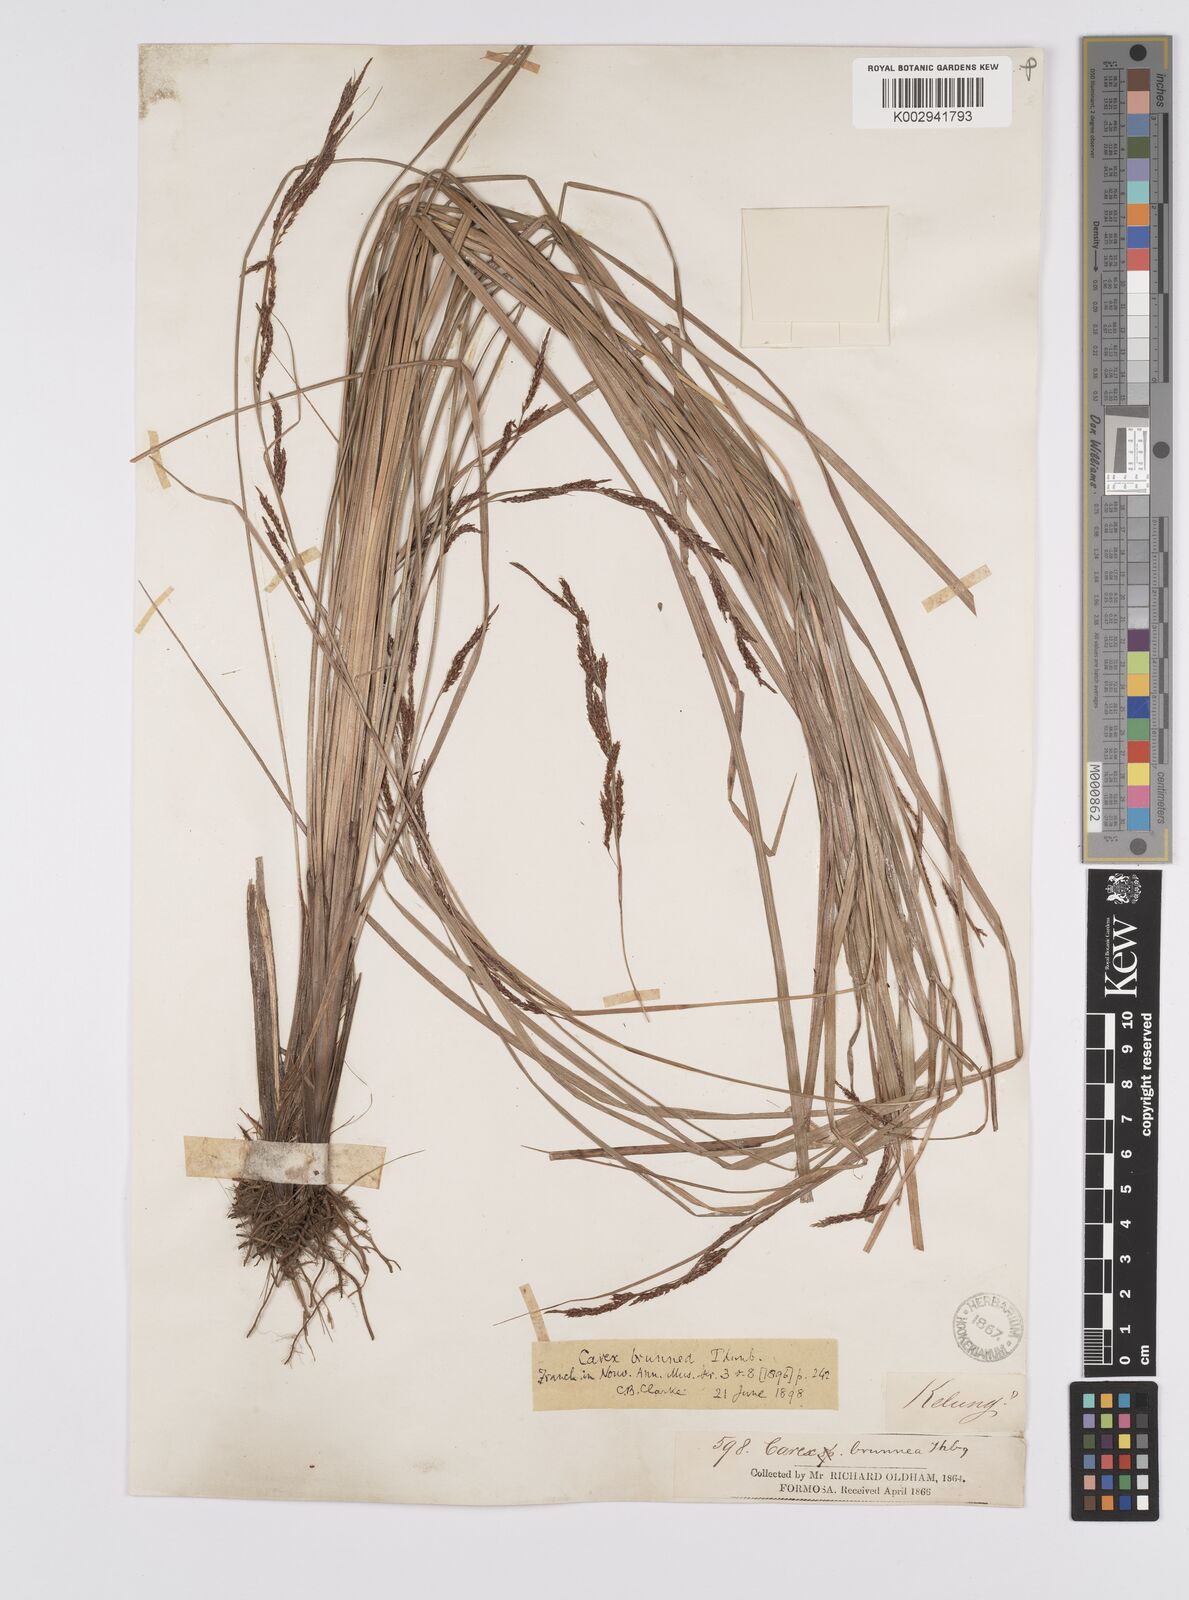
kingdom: Plantae
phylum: Tracheophyta
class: Liliopsida
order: Poales
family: Cyperaceae
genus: Carex
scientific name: Carex brunnea
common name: Greater brown sedge
